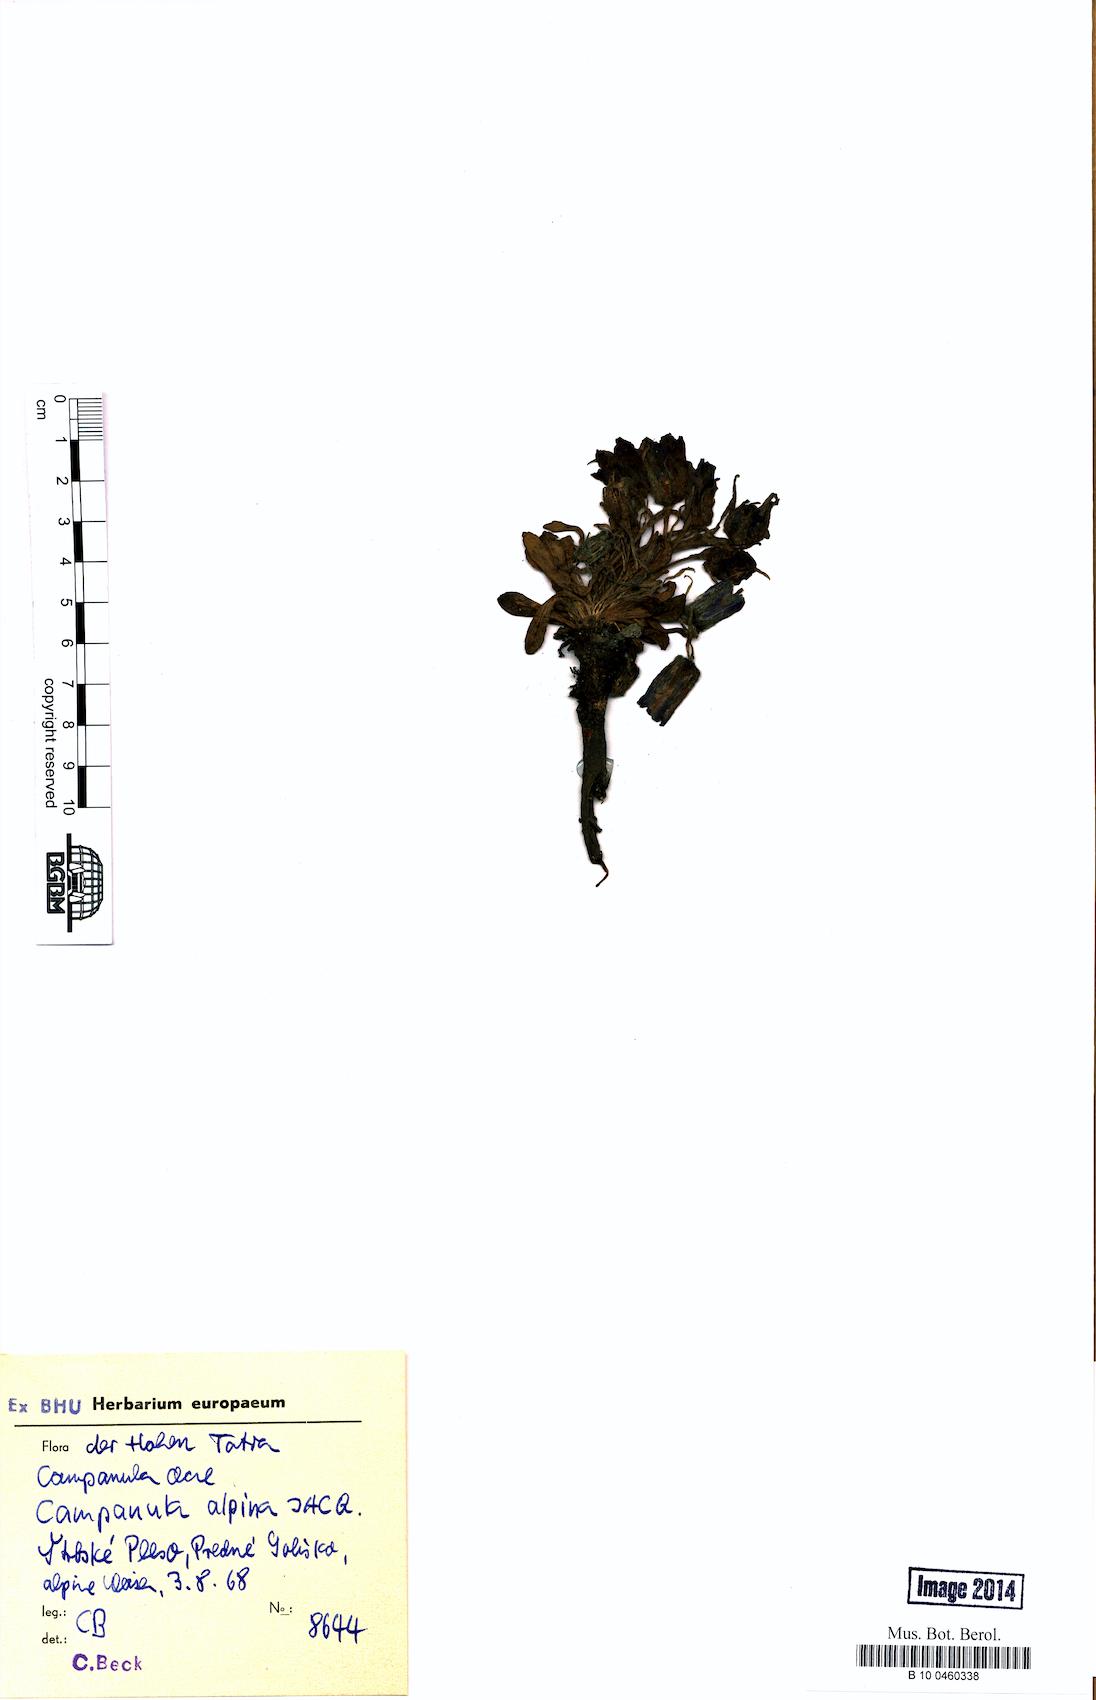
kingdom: Plantae
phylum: Tracheophyta
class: Magnoliopsida
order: Asterales
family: Campanulaceae
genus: Campanula
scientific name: Campanula alpina
